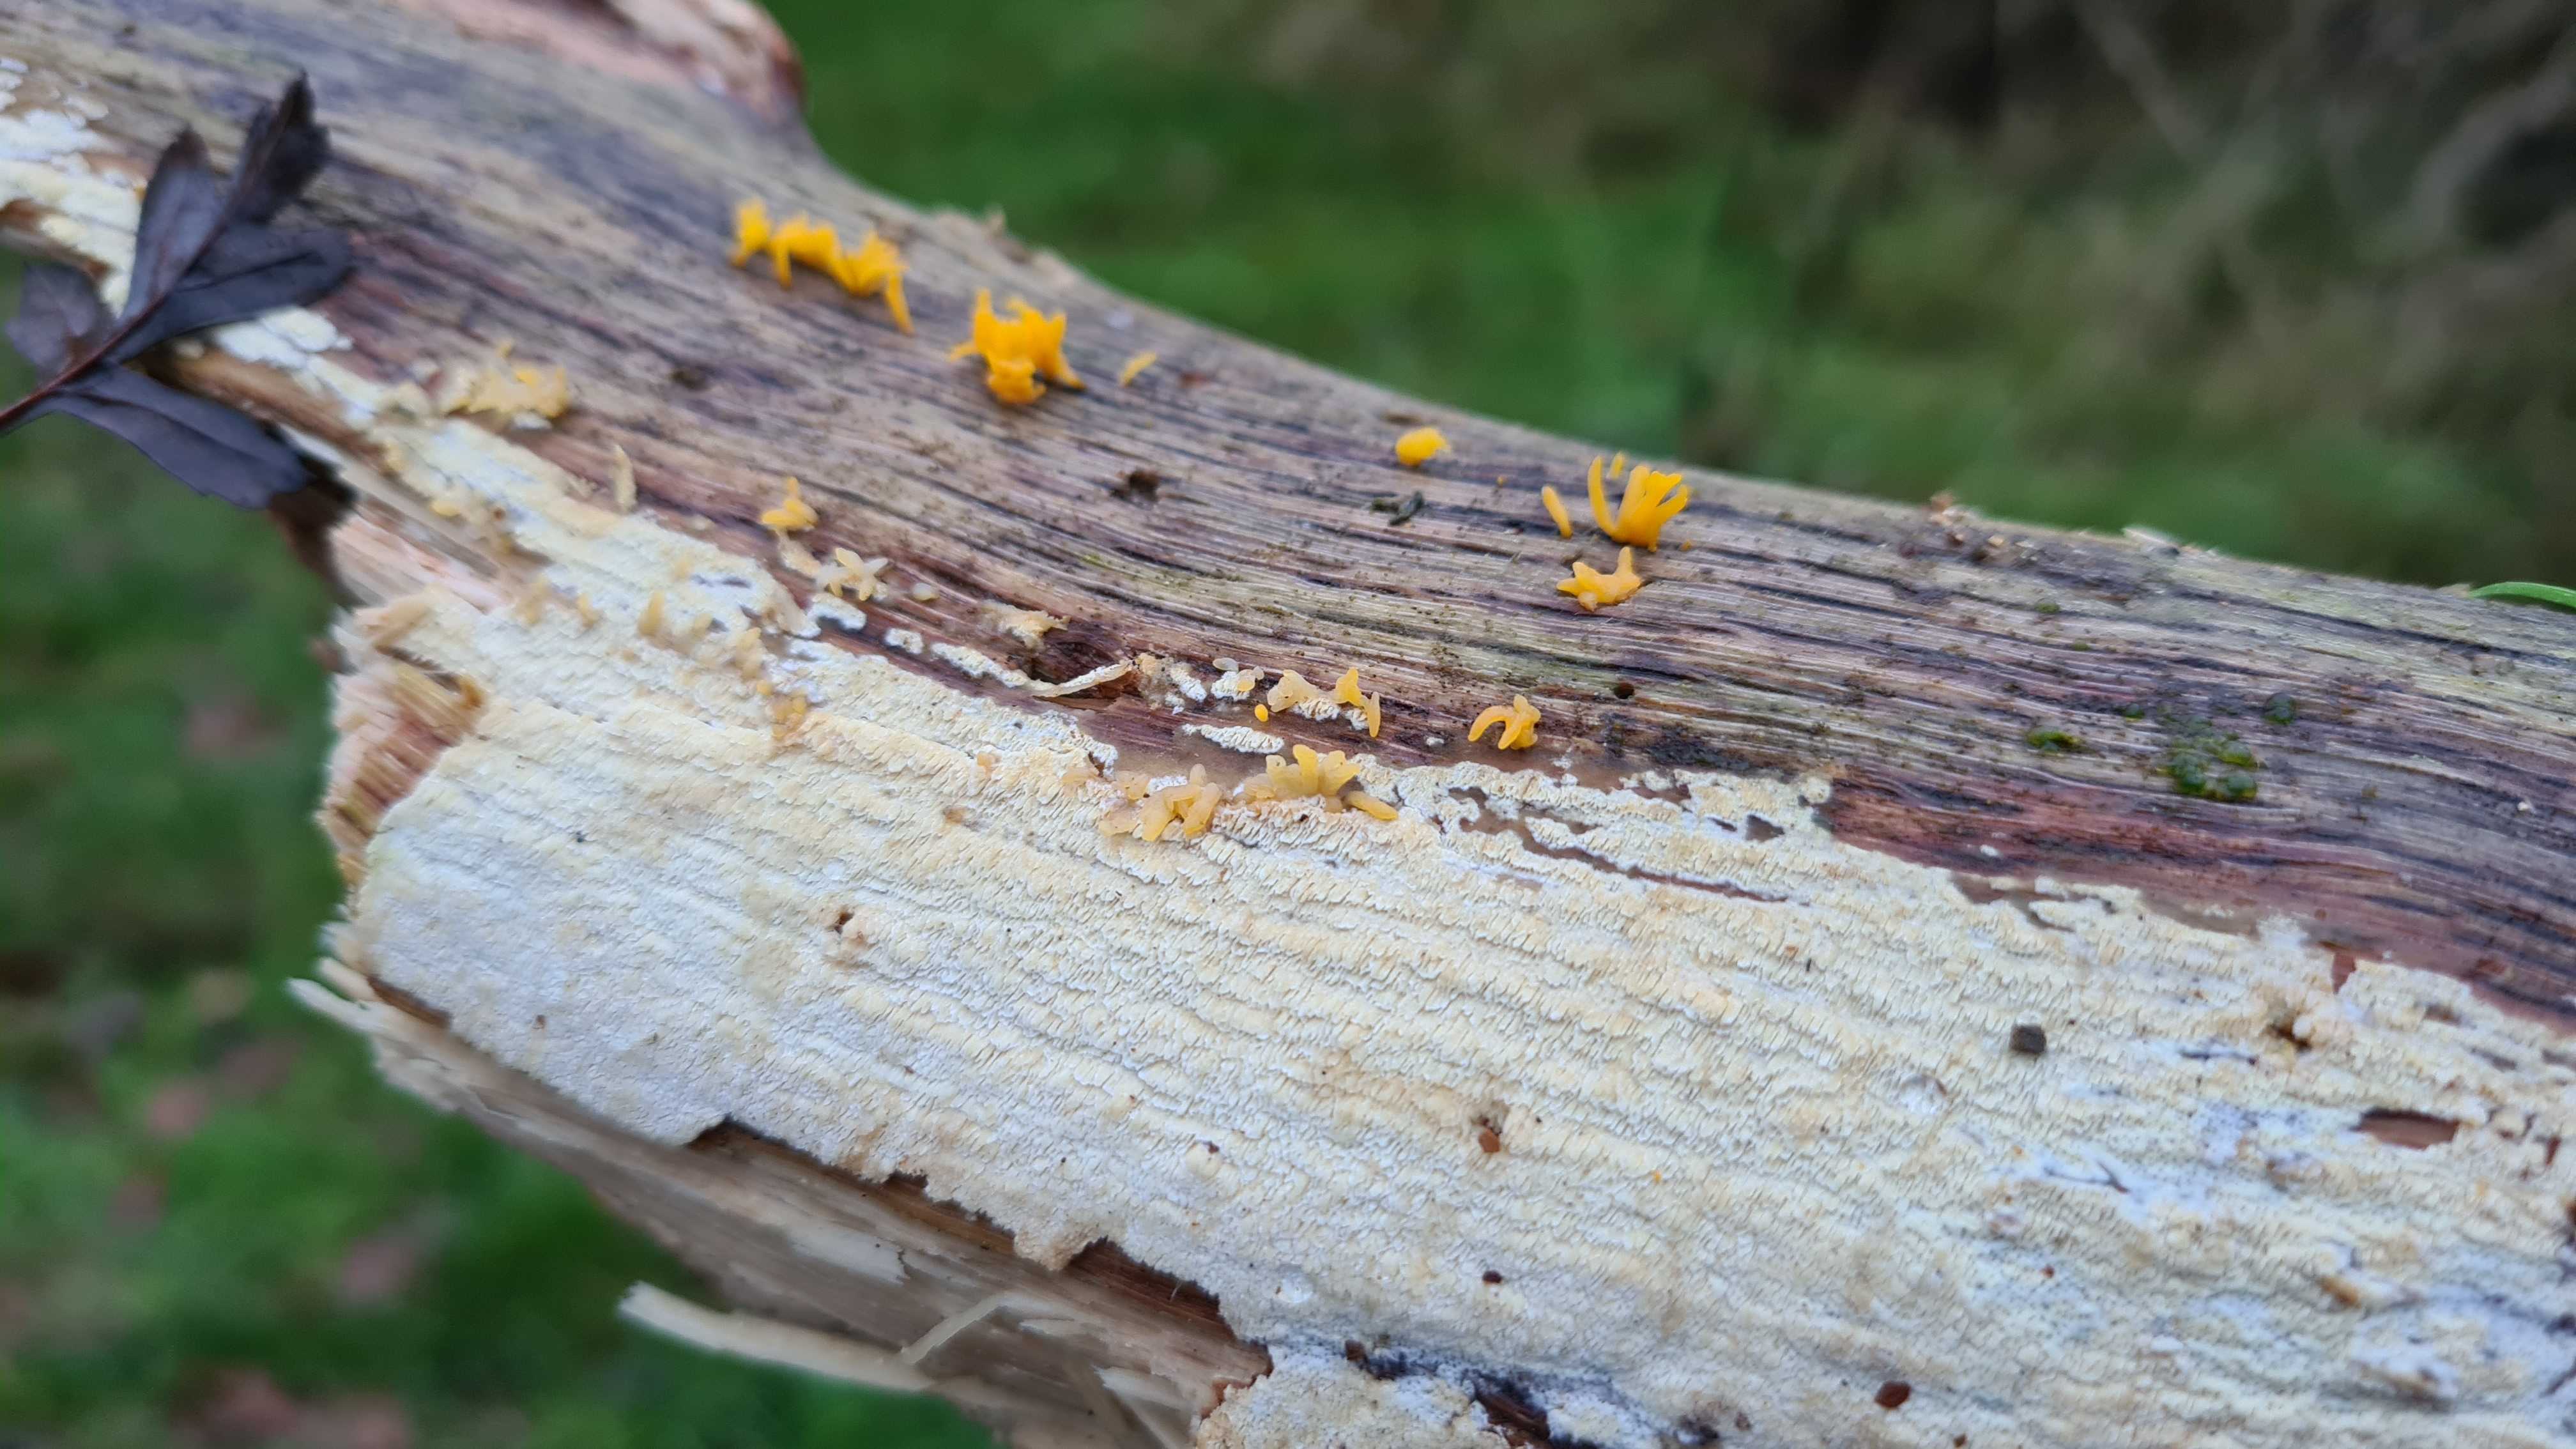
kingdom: Fungi
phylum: Basidiomycota
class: Dacrymycetes
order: Dacrymycetales
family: Dacrymycetaceae
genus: Calocera
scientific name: Calocera cornea
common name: liden guldgaffel
